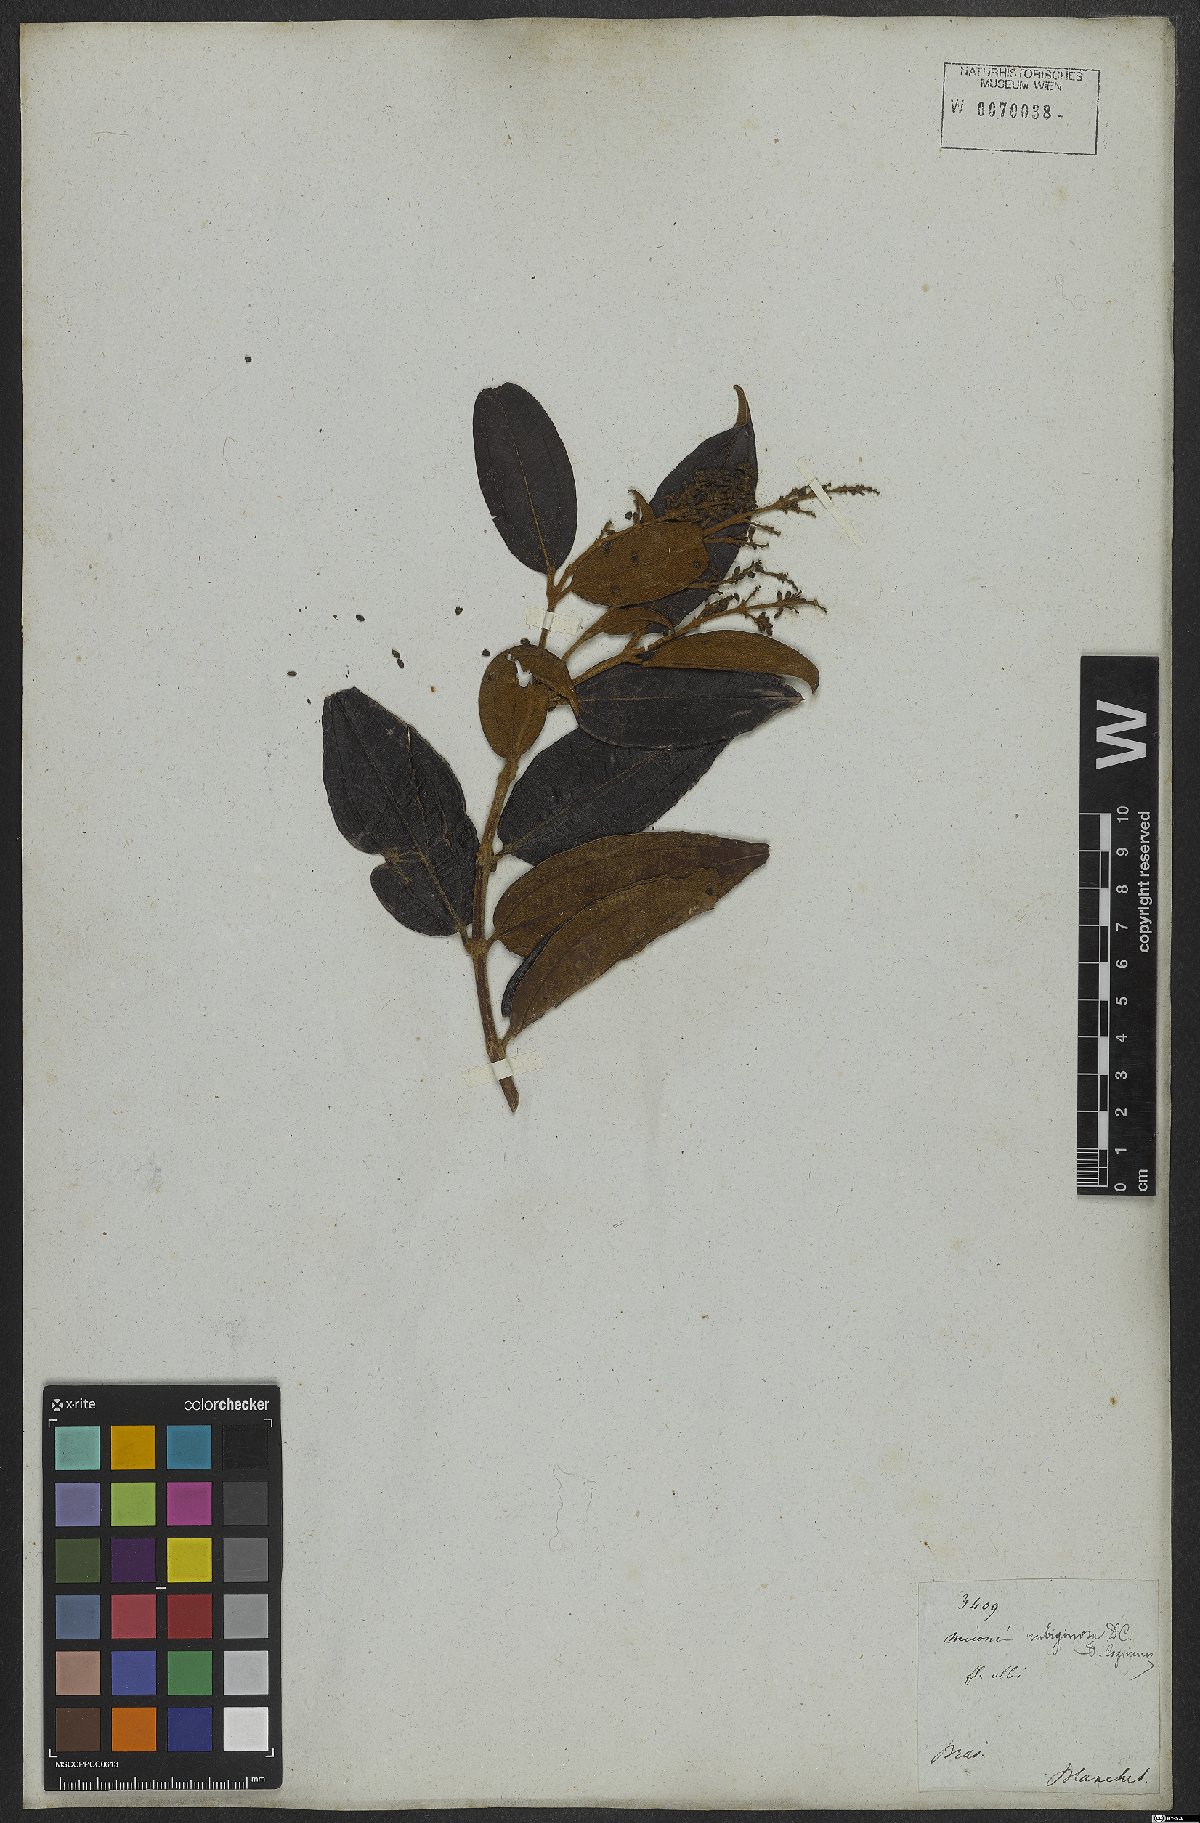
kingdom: Plantae
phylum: Tracheophyta
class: Magnoliopsida
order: Myrtales
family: Melastomataceae
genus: Miconia
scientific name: Miconia rubiginosa
